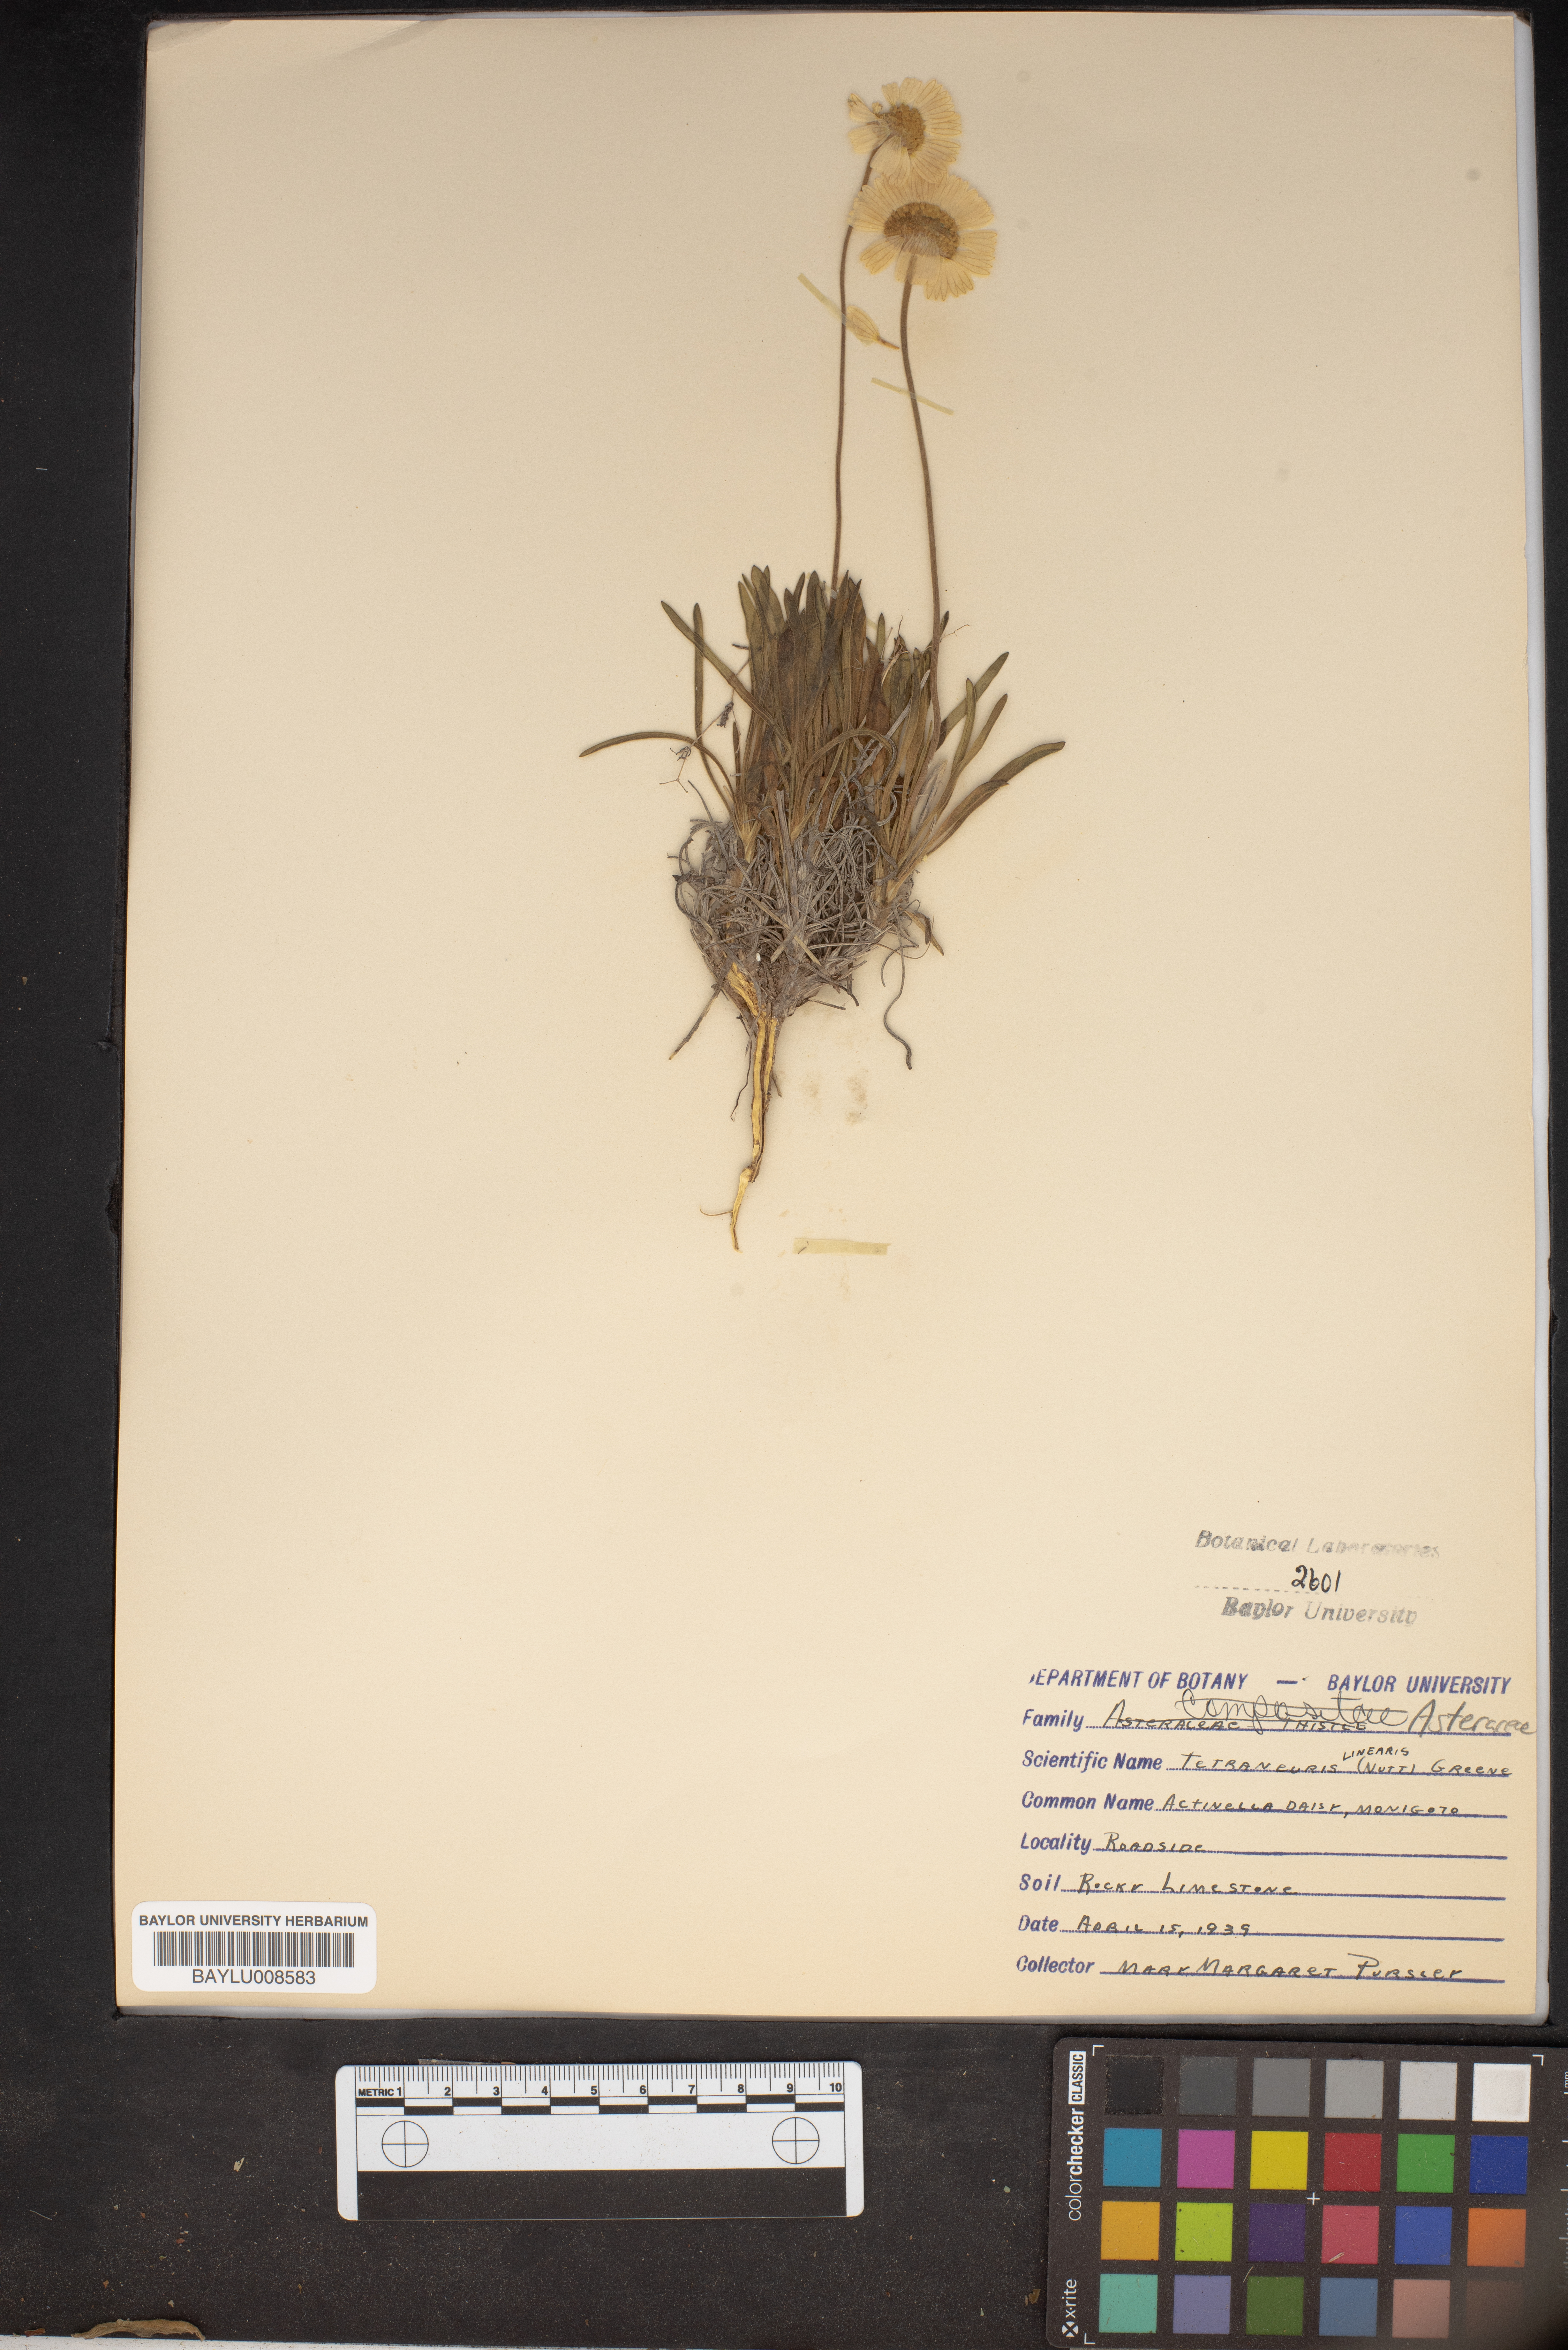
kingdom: Plantae
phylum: Tracheophyta
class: Magnoliopsida
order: Asterales
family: Asteraceae
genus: Tetraneuris
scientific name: Tetraneuris scaposa
